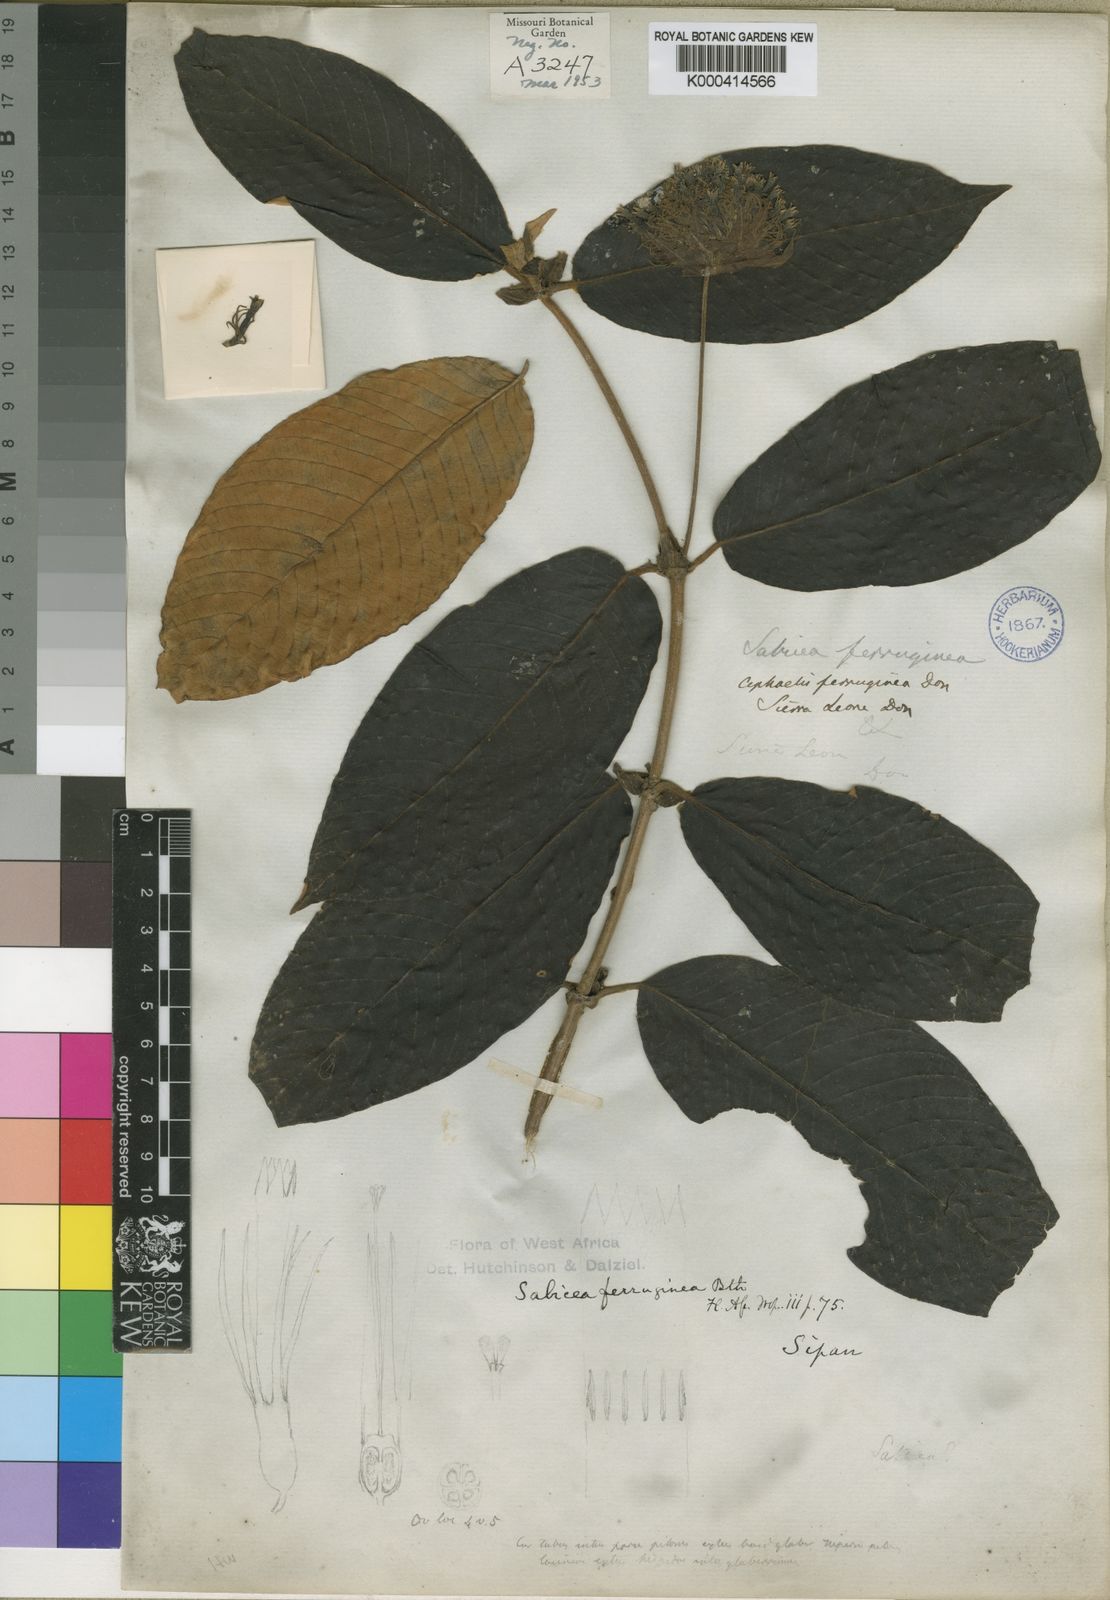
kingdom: Plantae
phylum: Tracheophyta
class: Magnoliopsida
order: Gentianales
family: Rubiaceae
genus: Sabicea
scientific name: Sabicea ferruginea
